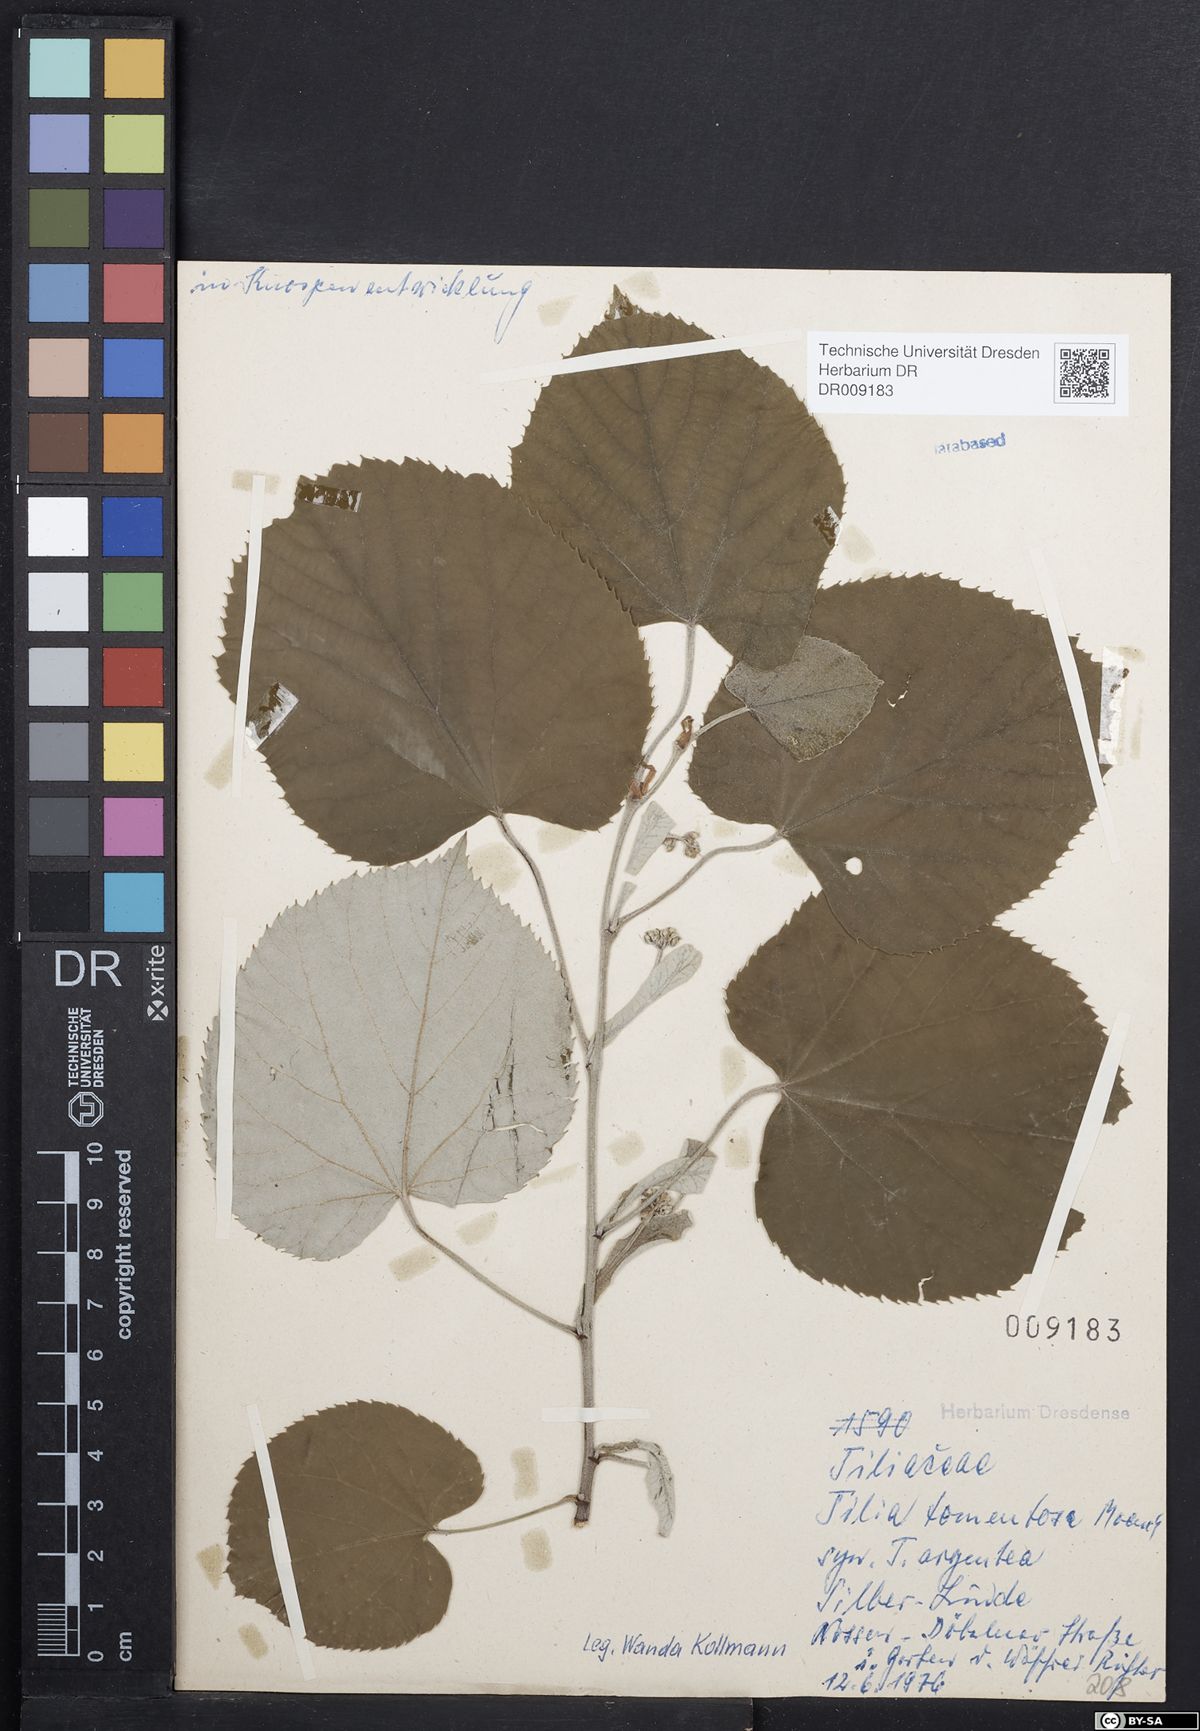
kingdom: Plantae
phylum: Tracheophyta
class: Magnoliopsida
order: Malvales
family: Malvaceae
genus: Tilia
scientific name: Tilia tomentosa
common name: Silver lime
